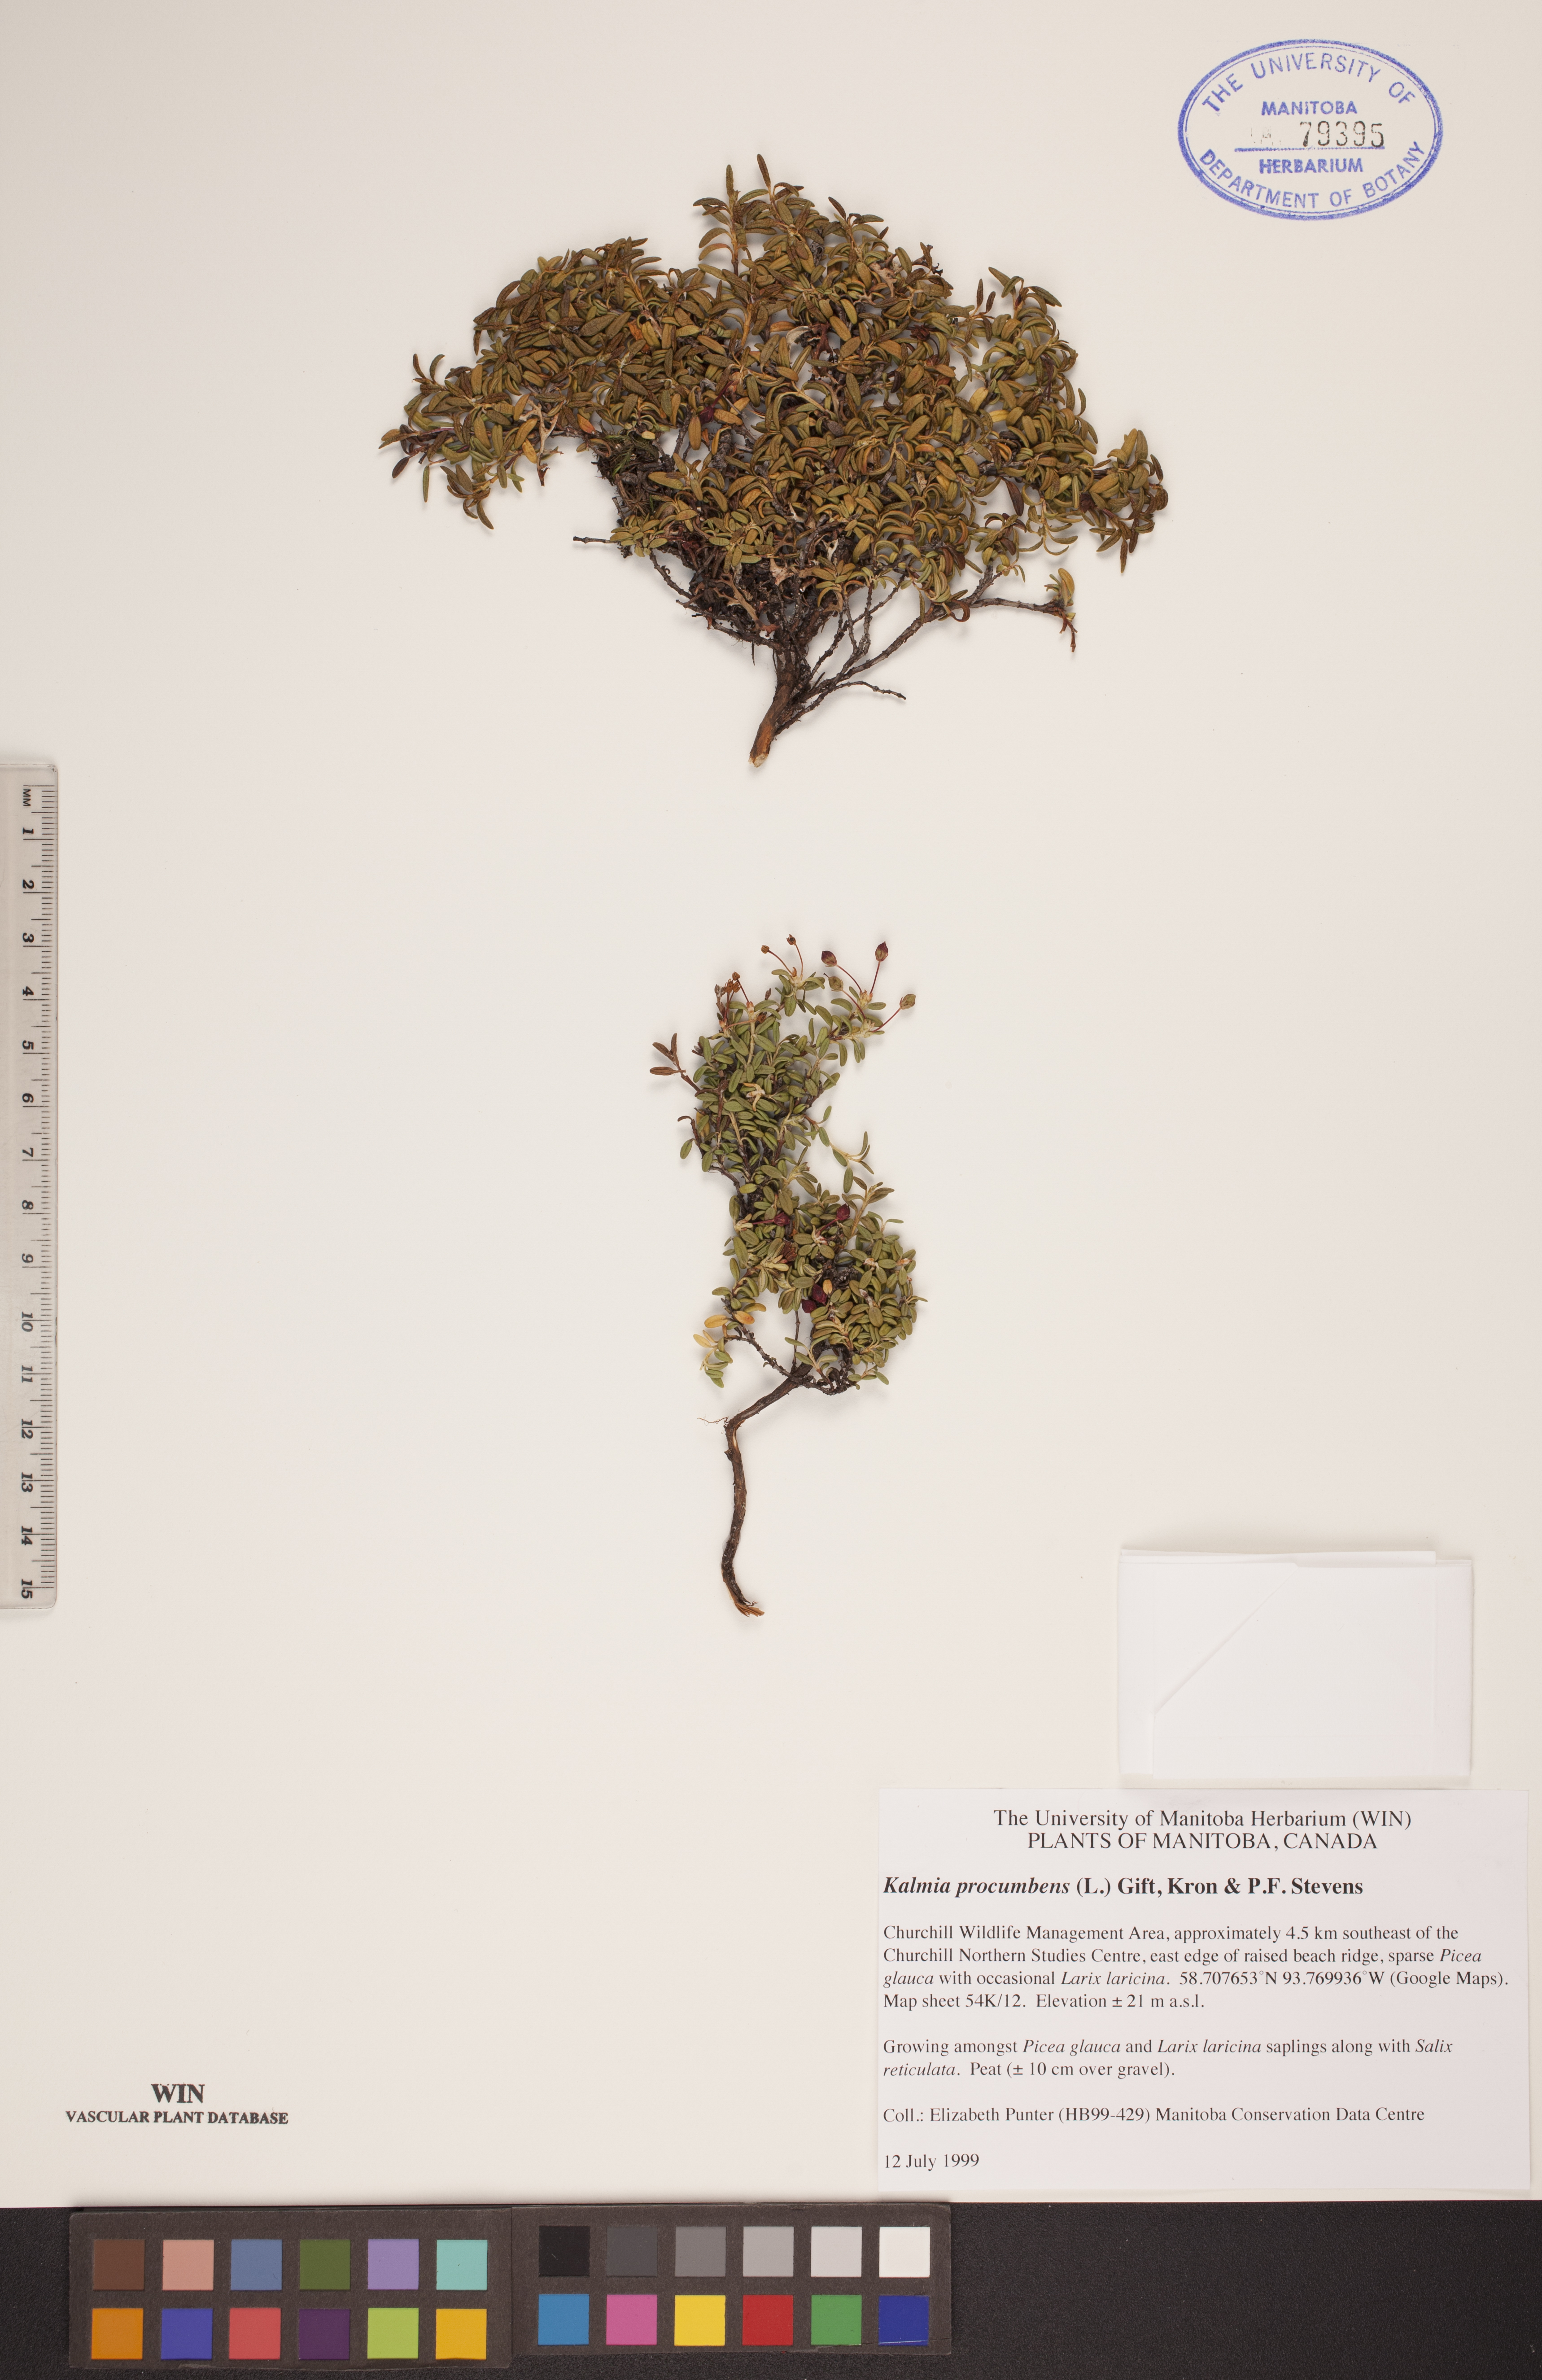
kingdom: Plantae
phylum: Tracheophyta
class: Magnoliopsida
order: Ericales
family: Ericaceae
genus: Kalmia
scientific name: Kalmia procumbens
